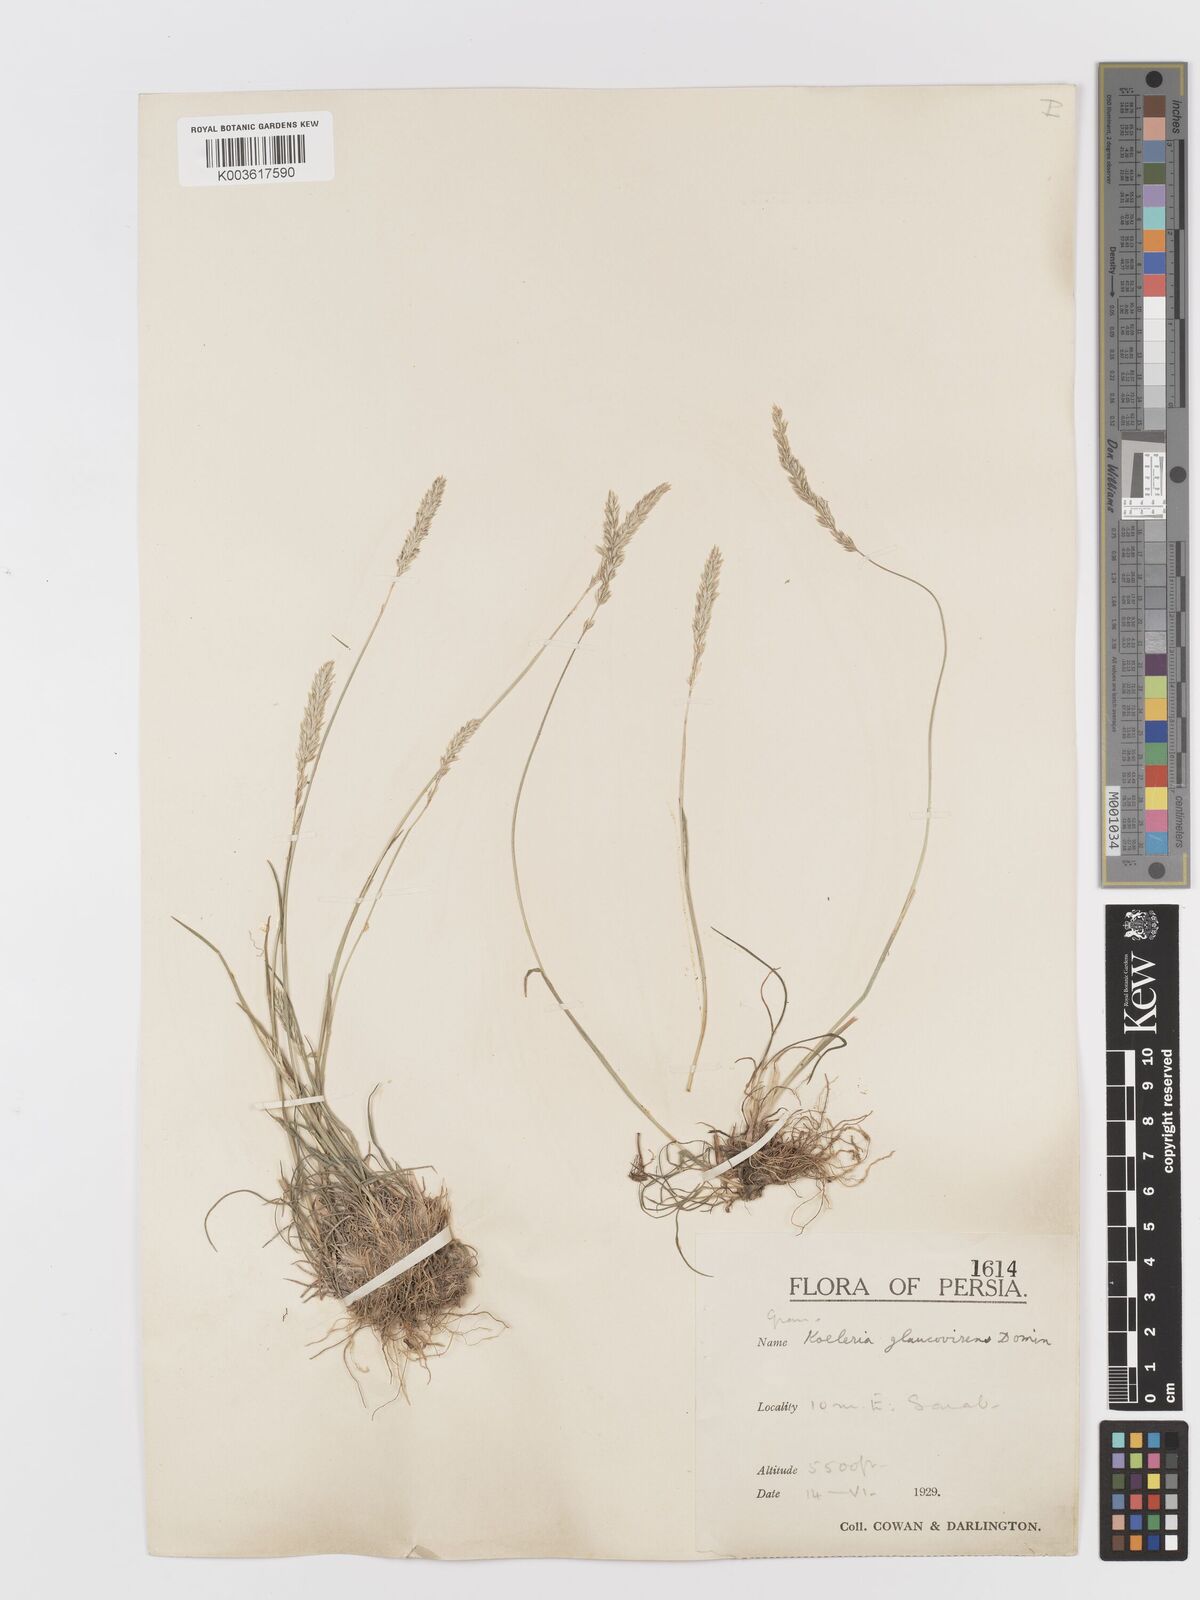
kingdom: Plantae
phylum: Tracheophyta
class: Liliopsida
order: Poales
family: Poaceae
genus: Koeleria
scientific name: Koeleria macrantha
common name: Crested hair-grass
